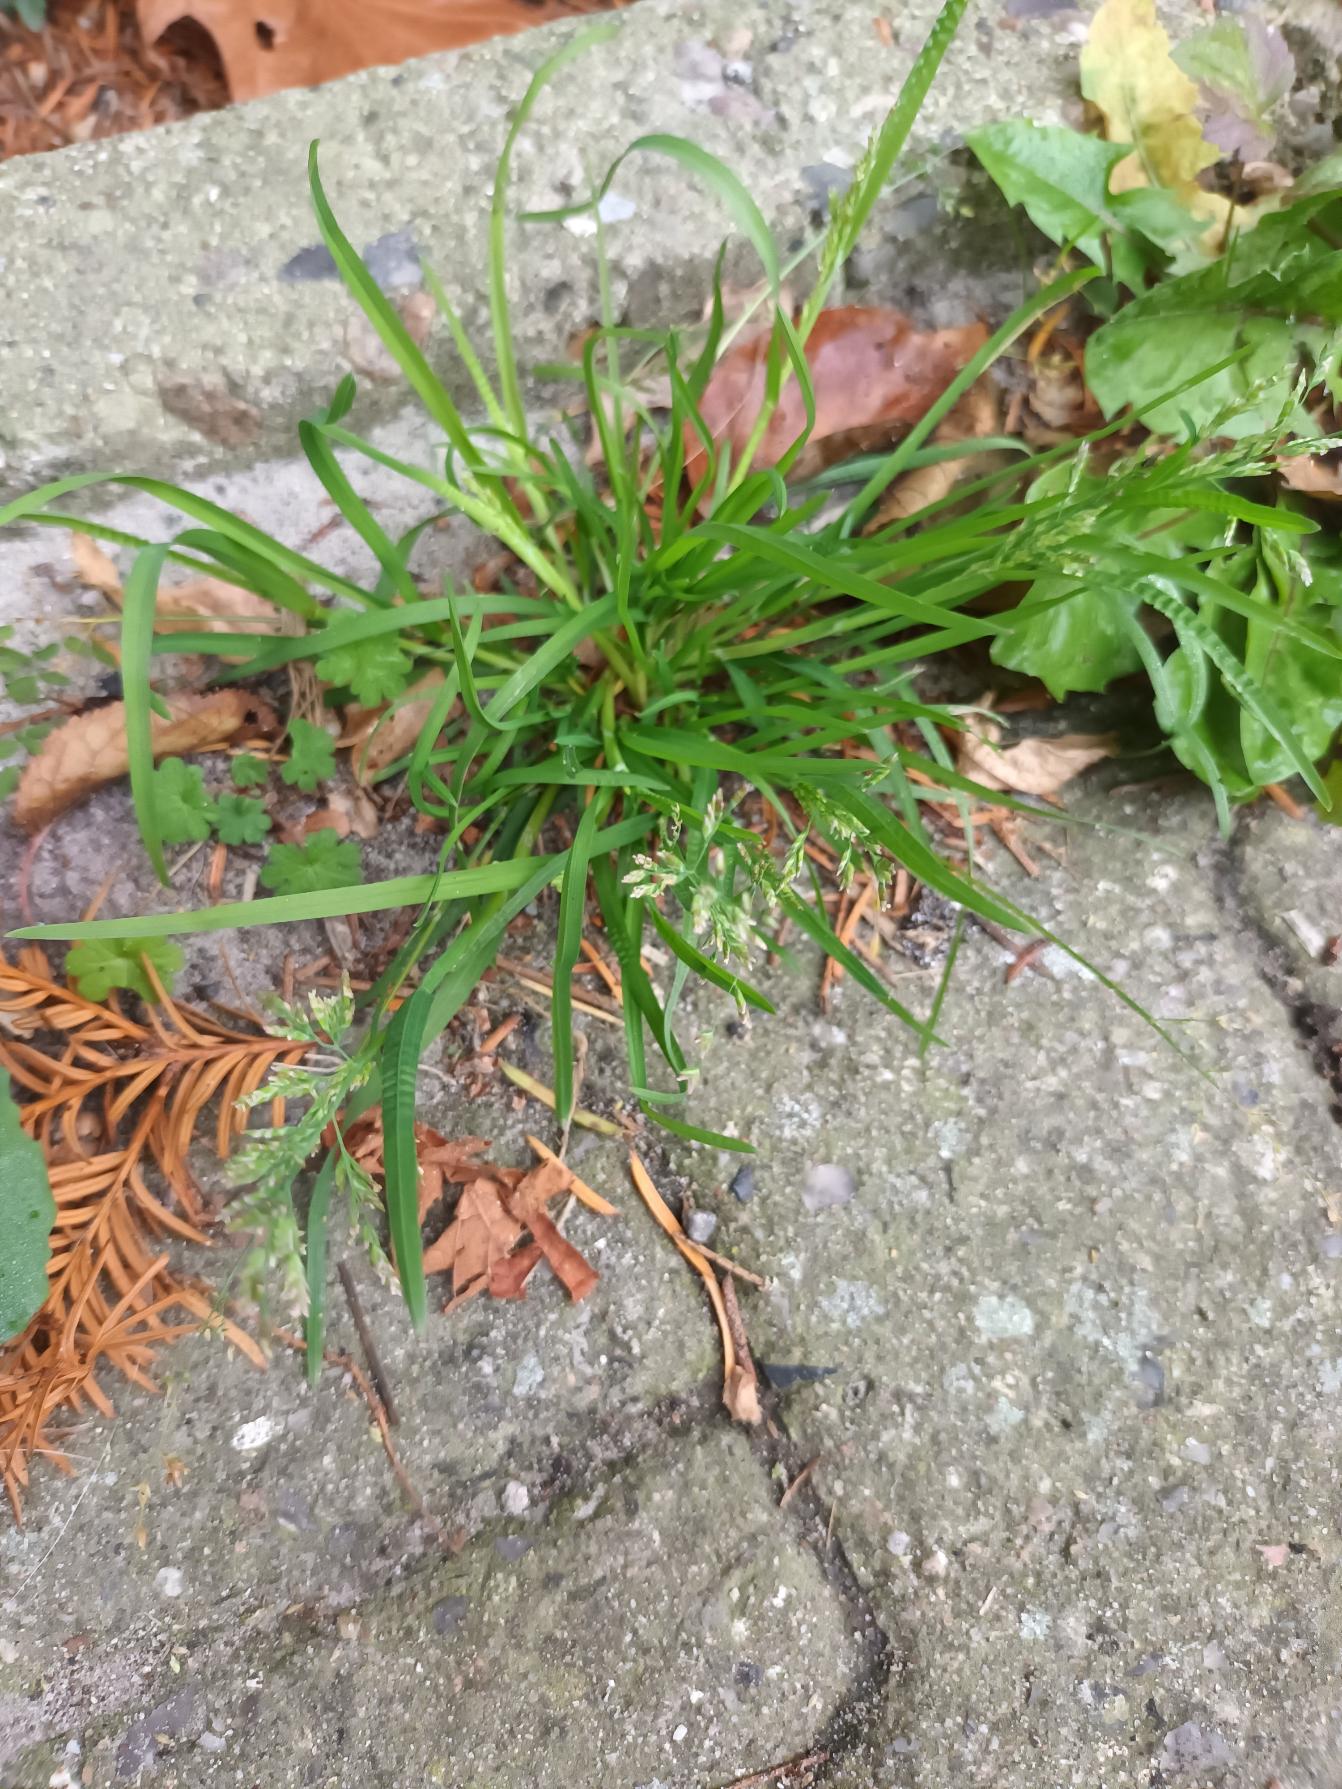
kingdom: Plantae
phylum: Tracheophyta
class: Liliopsida
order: Poales
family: Poaceae
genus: Poa
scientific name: Poa annua
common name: Enårig rapgræs
